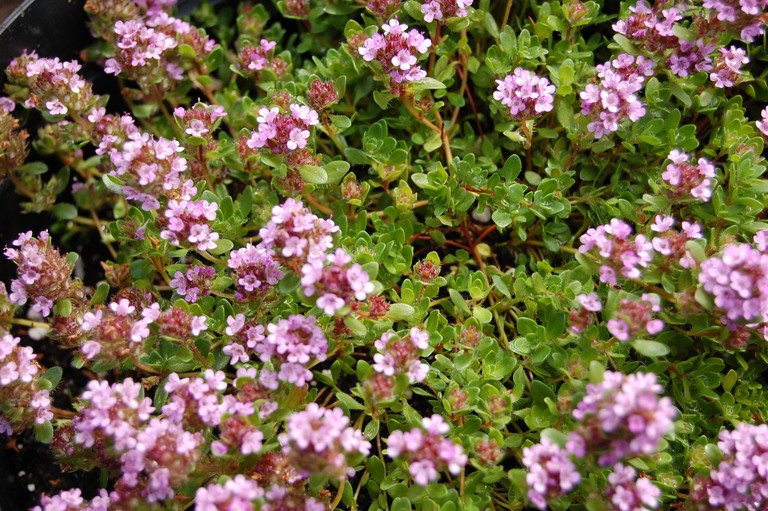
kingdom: Plantae
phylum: Tracheophyta
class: Magnoliopsida
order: Lamiales
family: Lamiaceae
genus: Thymus
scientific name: Thymus praecox
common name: Wild thyme
